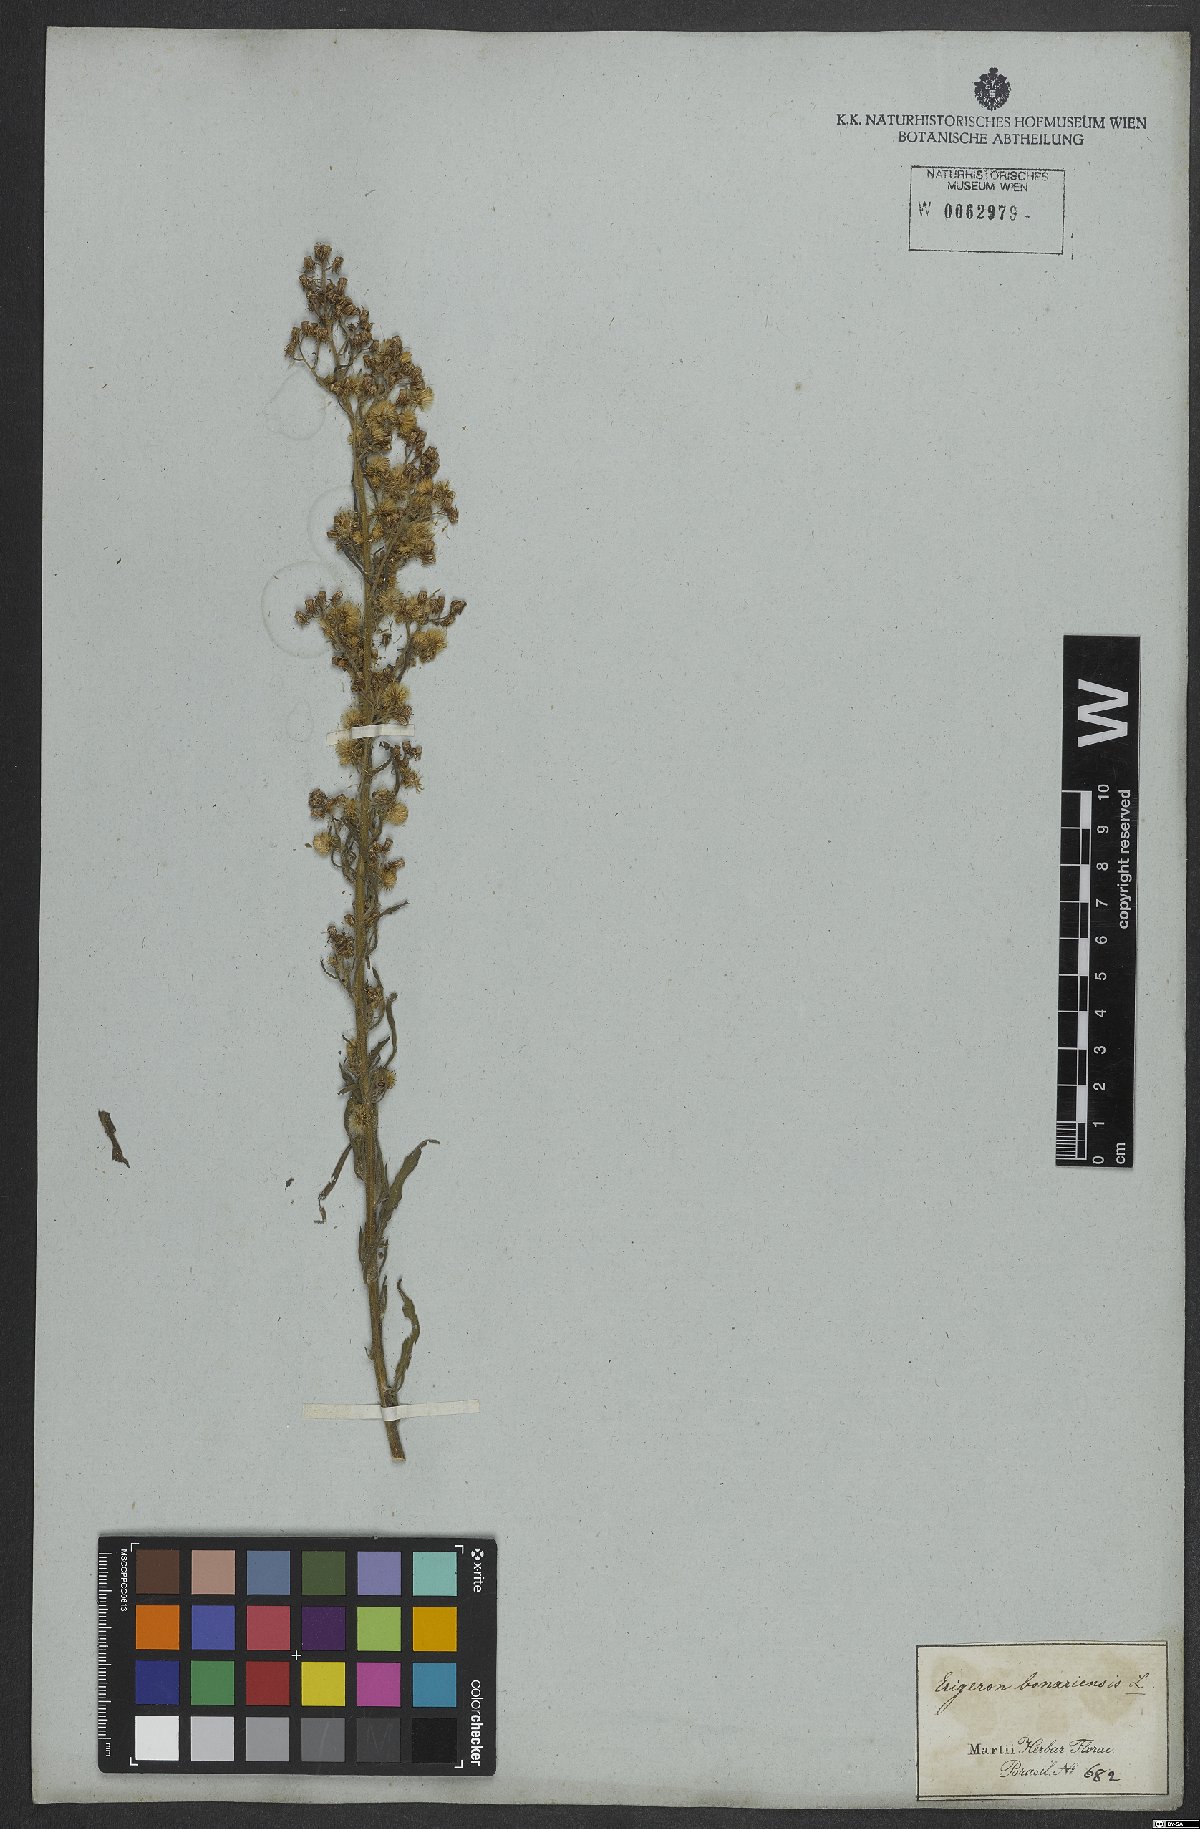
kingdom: Plantae
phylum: Tracheophyta
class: Magnoliopsida
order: Asterales
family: Asteraceae
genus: Erigeron
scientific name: Erigeron bonariensis
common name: Argentine fleabane
